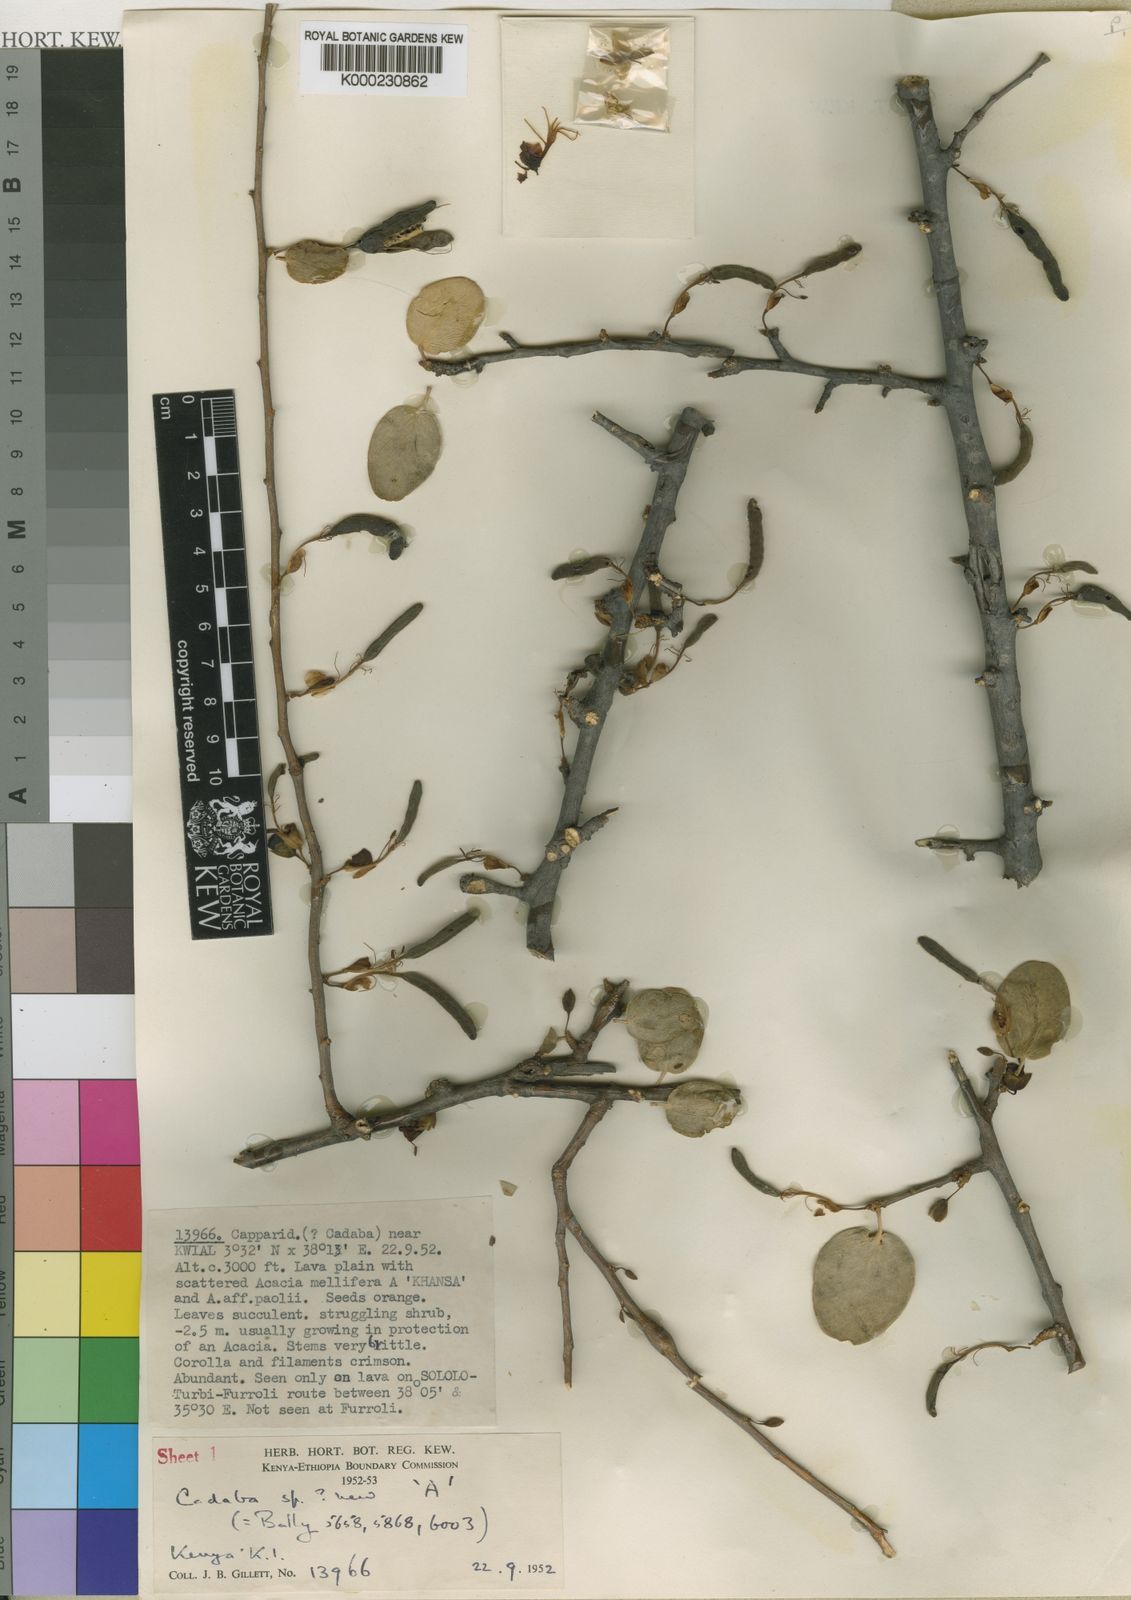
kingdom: Plantae
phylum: Tracheophyta
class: Magnoliopsida
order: Brassicales
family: Capparaceae
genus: Cadaba
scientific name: Cadaba gillettii
